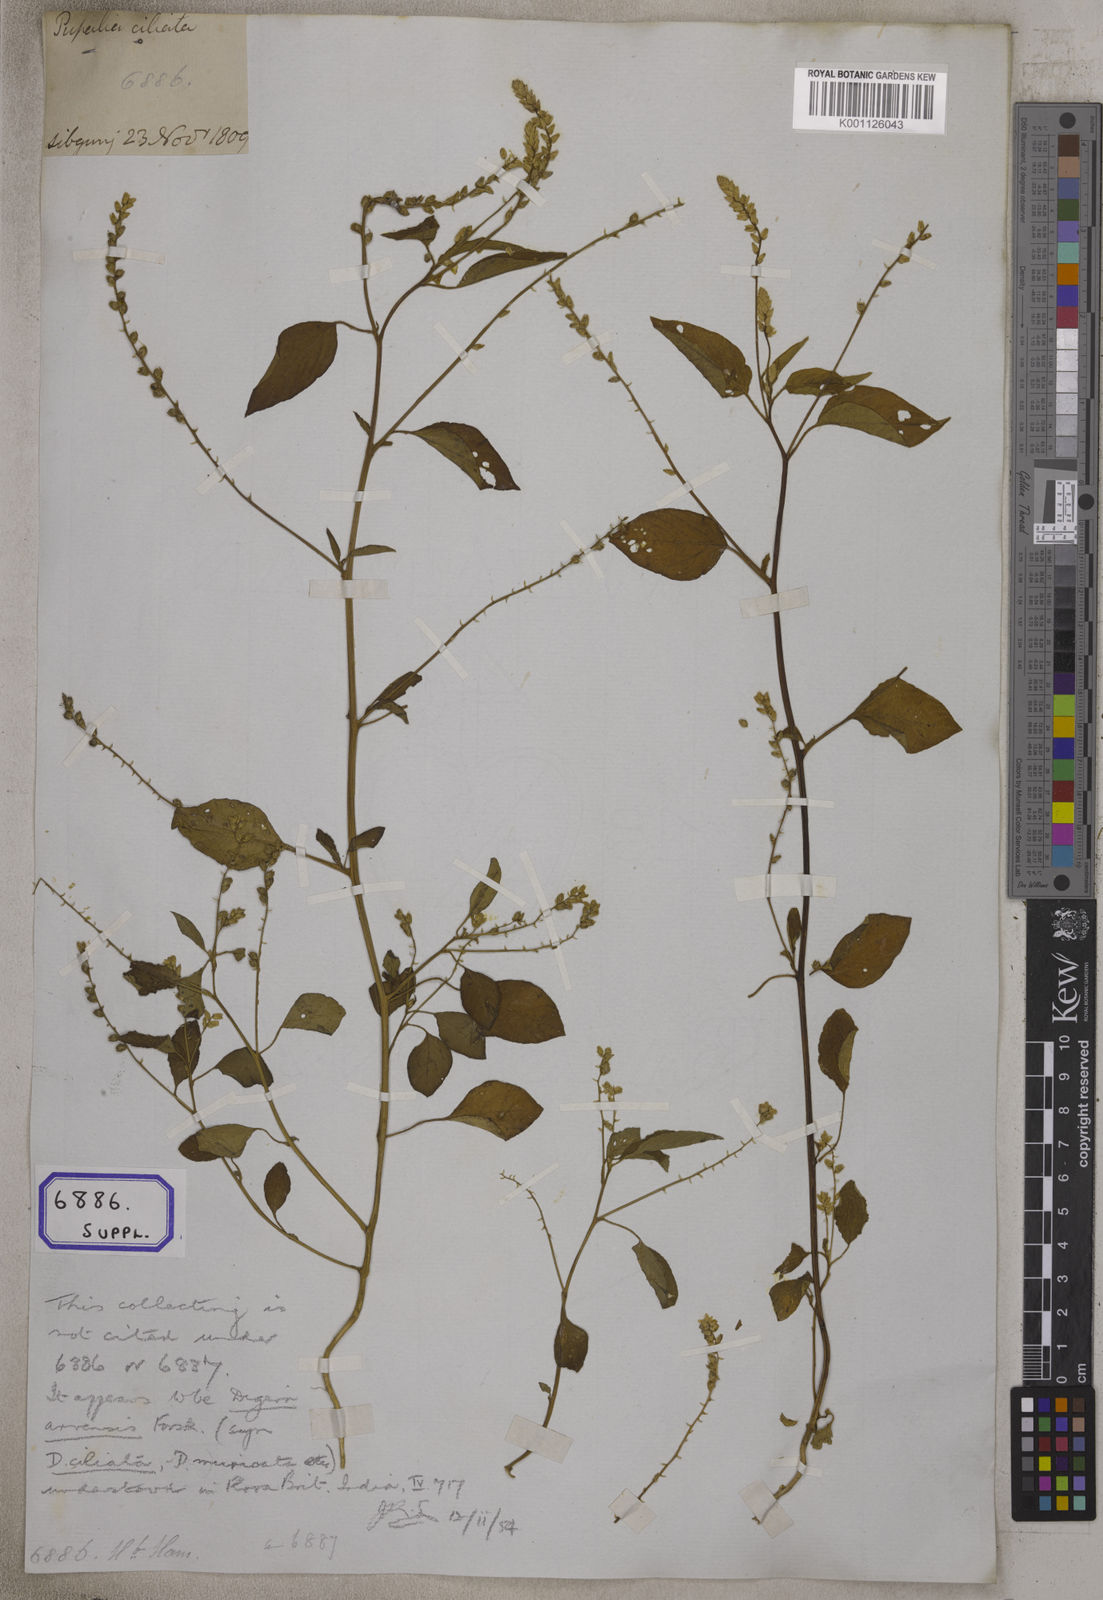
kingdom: Plantae
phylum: Tracheophyta
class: Magnoliopsida
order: Caryophyllales
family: Amaranthaceae
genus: Digera
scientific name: Digera muricata
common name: False amaranth
